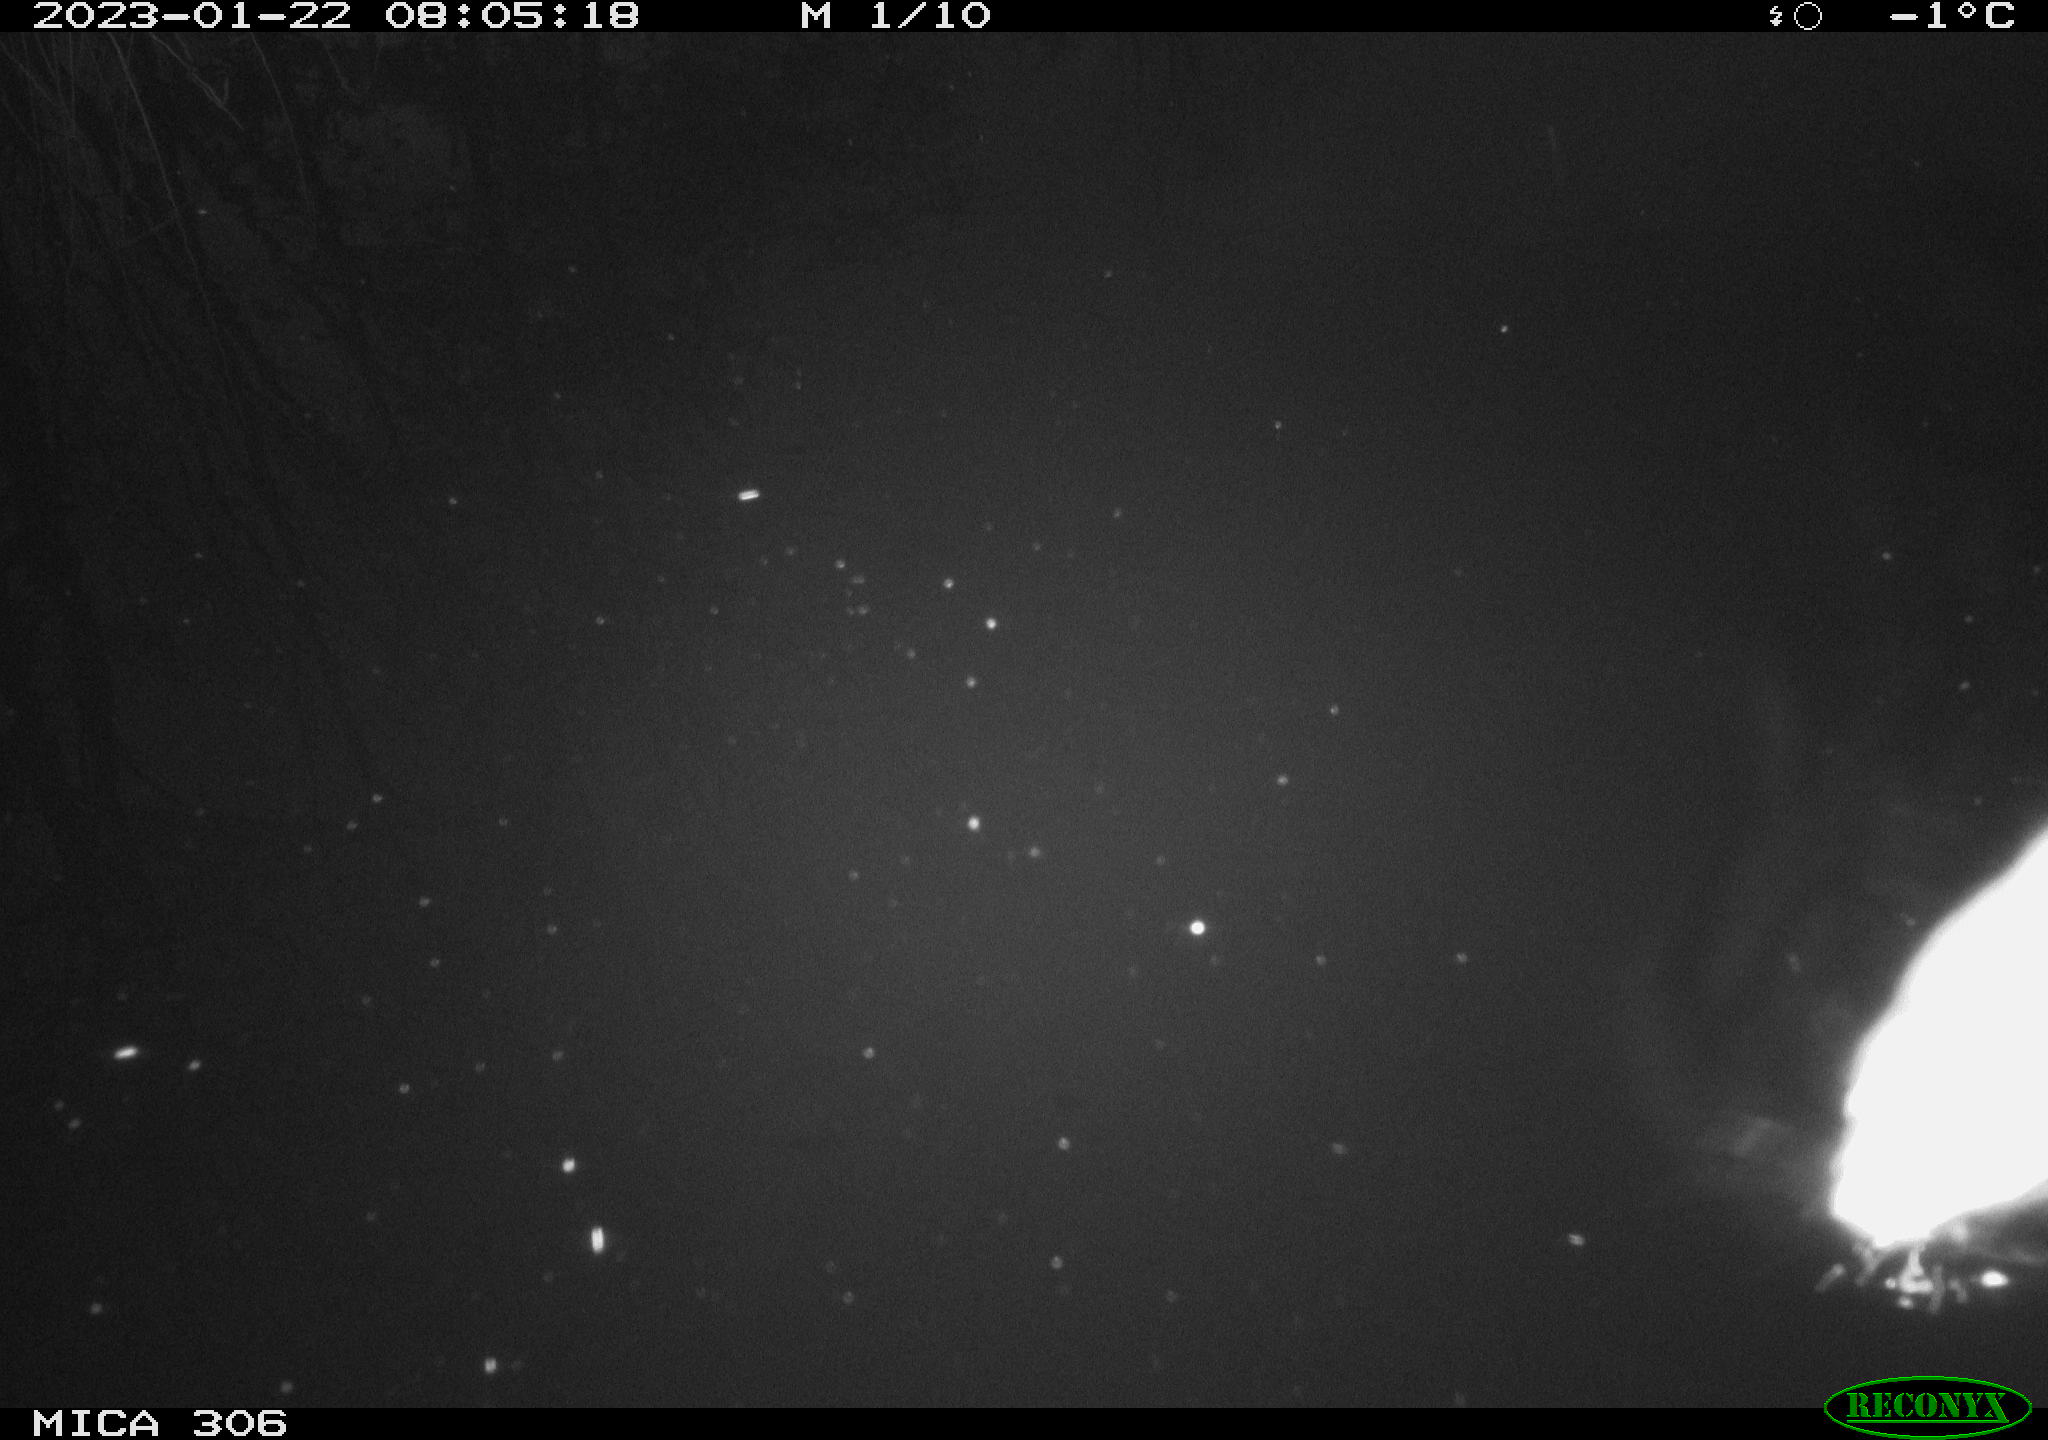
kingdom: Animalia
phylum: Chordata
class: Mammalia
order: Rodentia
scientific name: Rodentia
